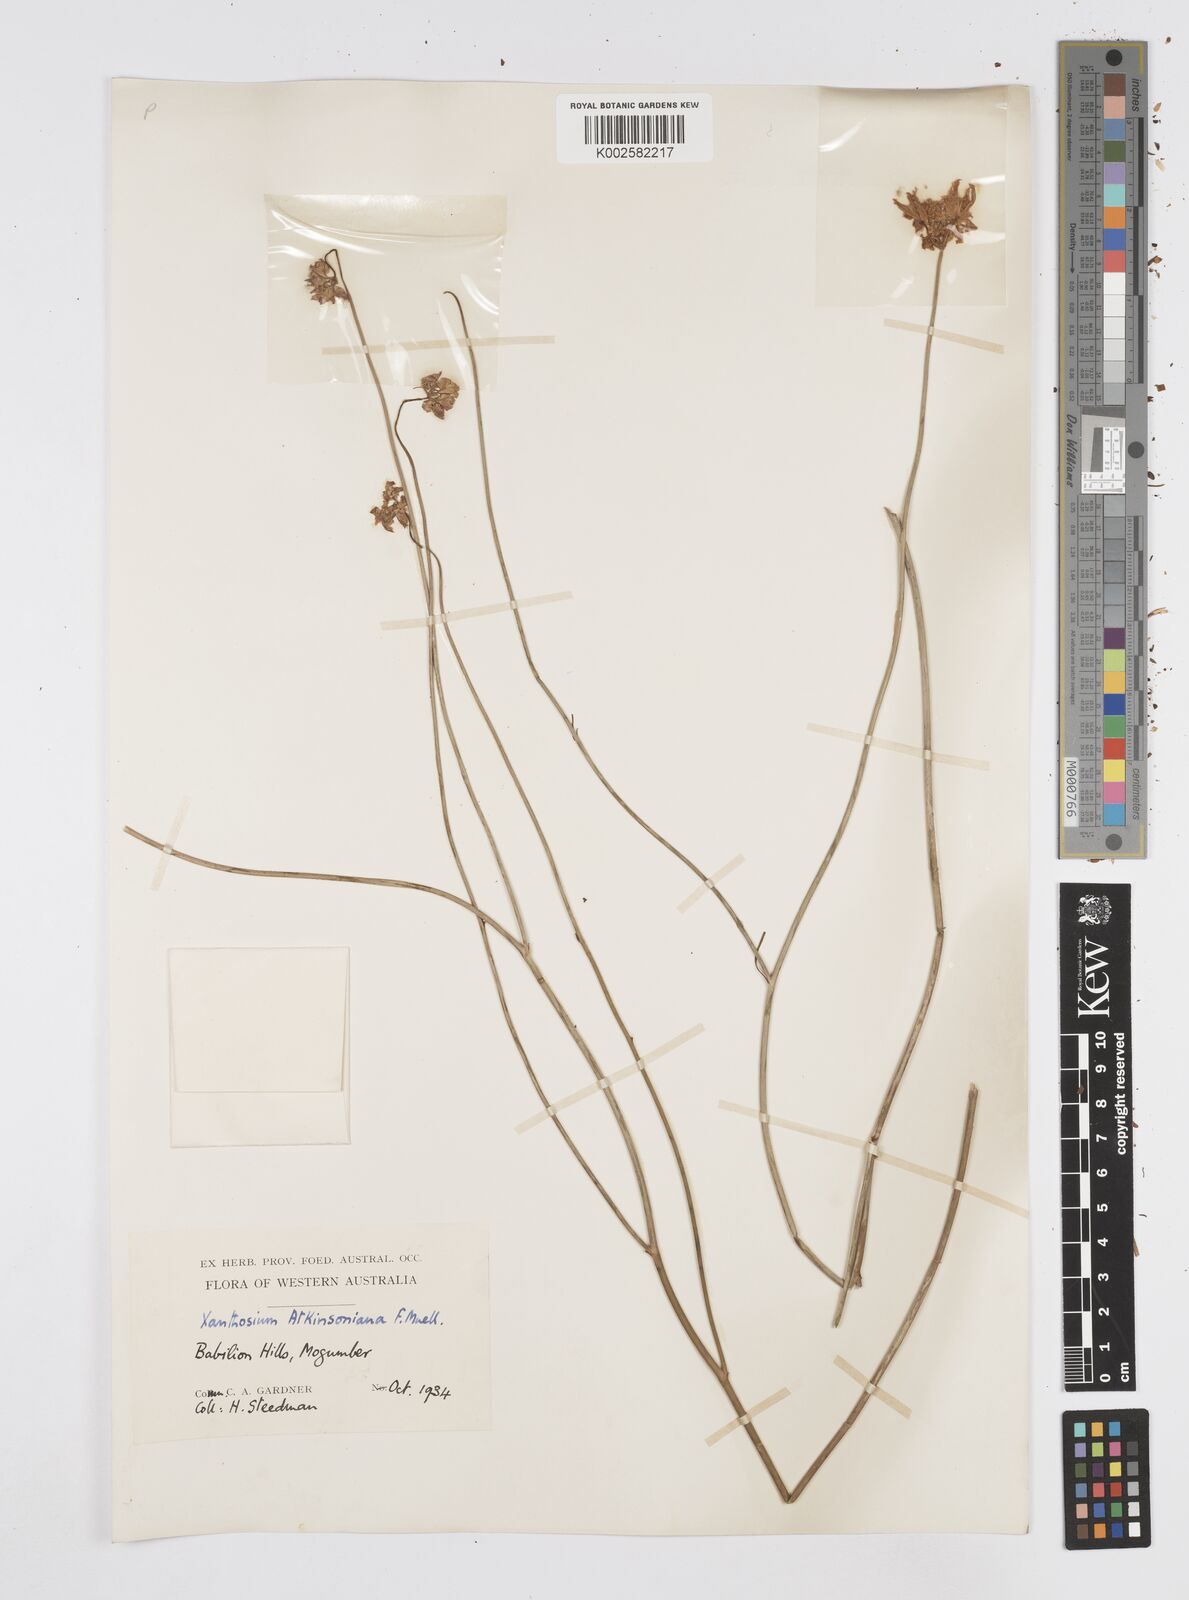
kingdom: Plantae
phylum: Tracheophyta
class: Magnoliopsida
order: Apiales
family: Apiaceae
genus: Xanthosia
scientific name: Xanthosia atkinsoniana
